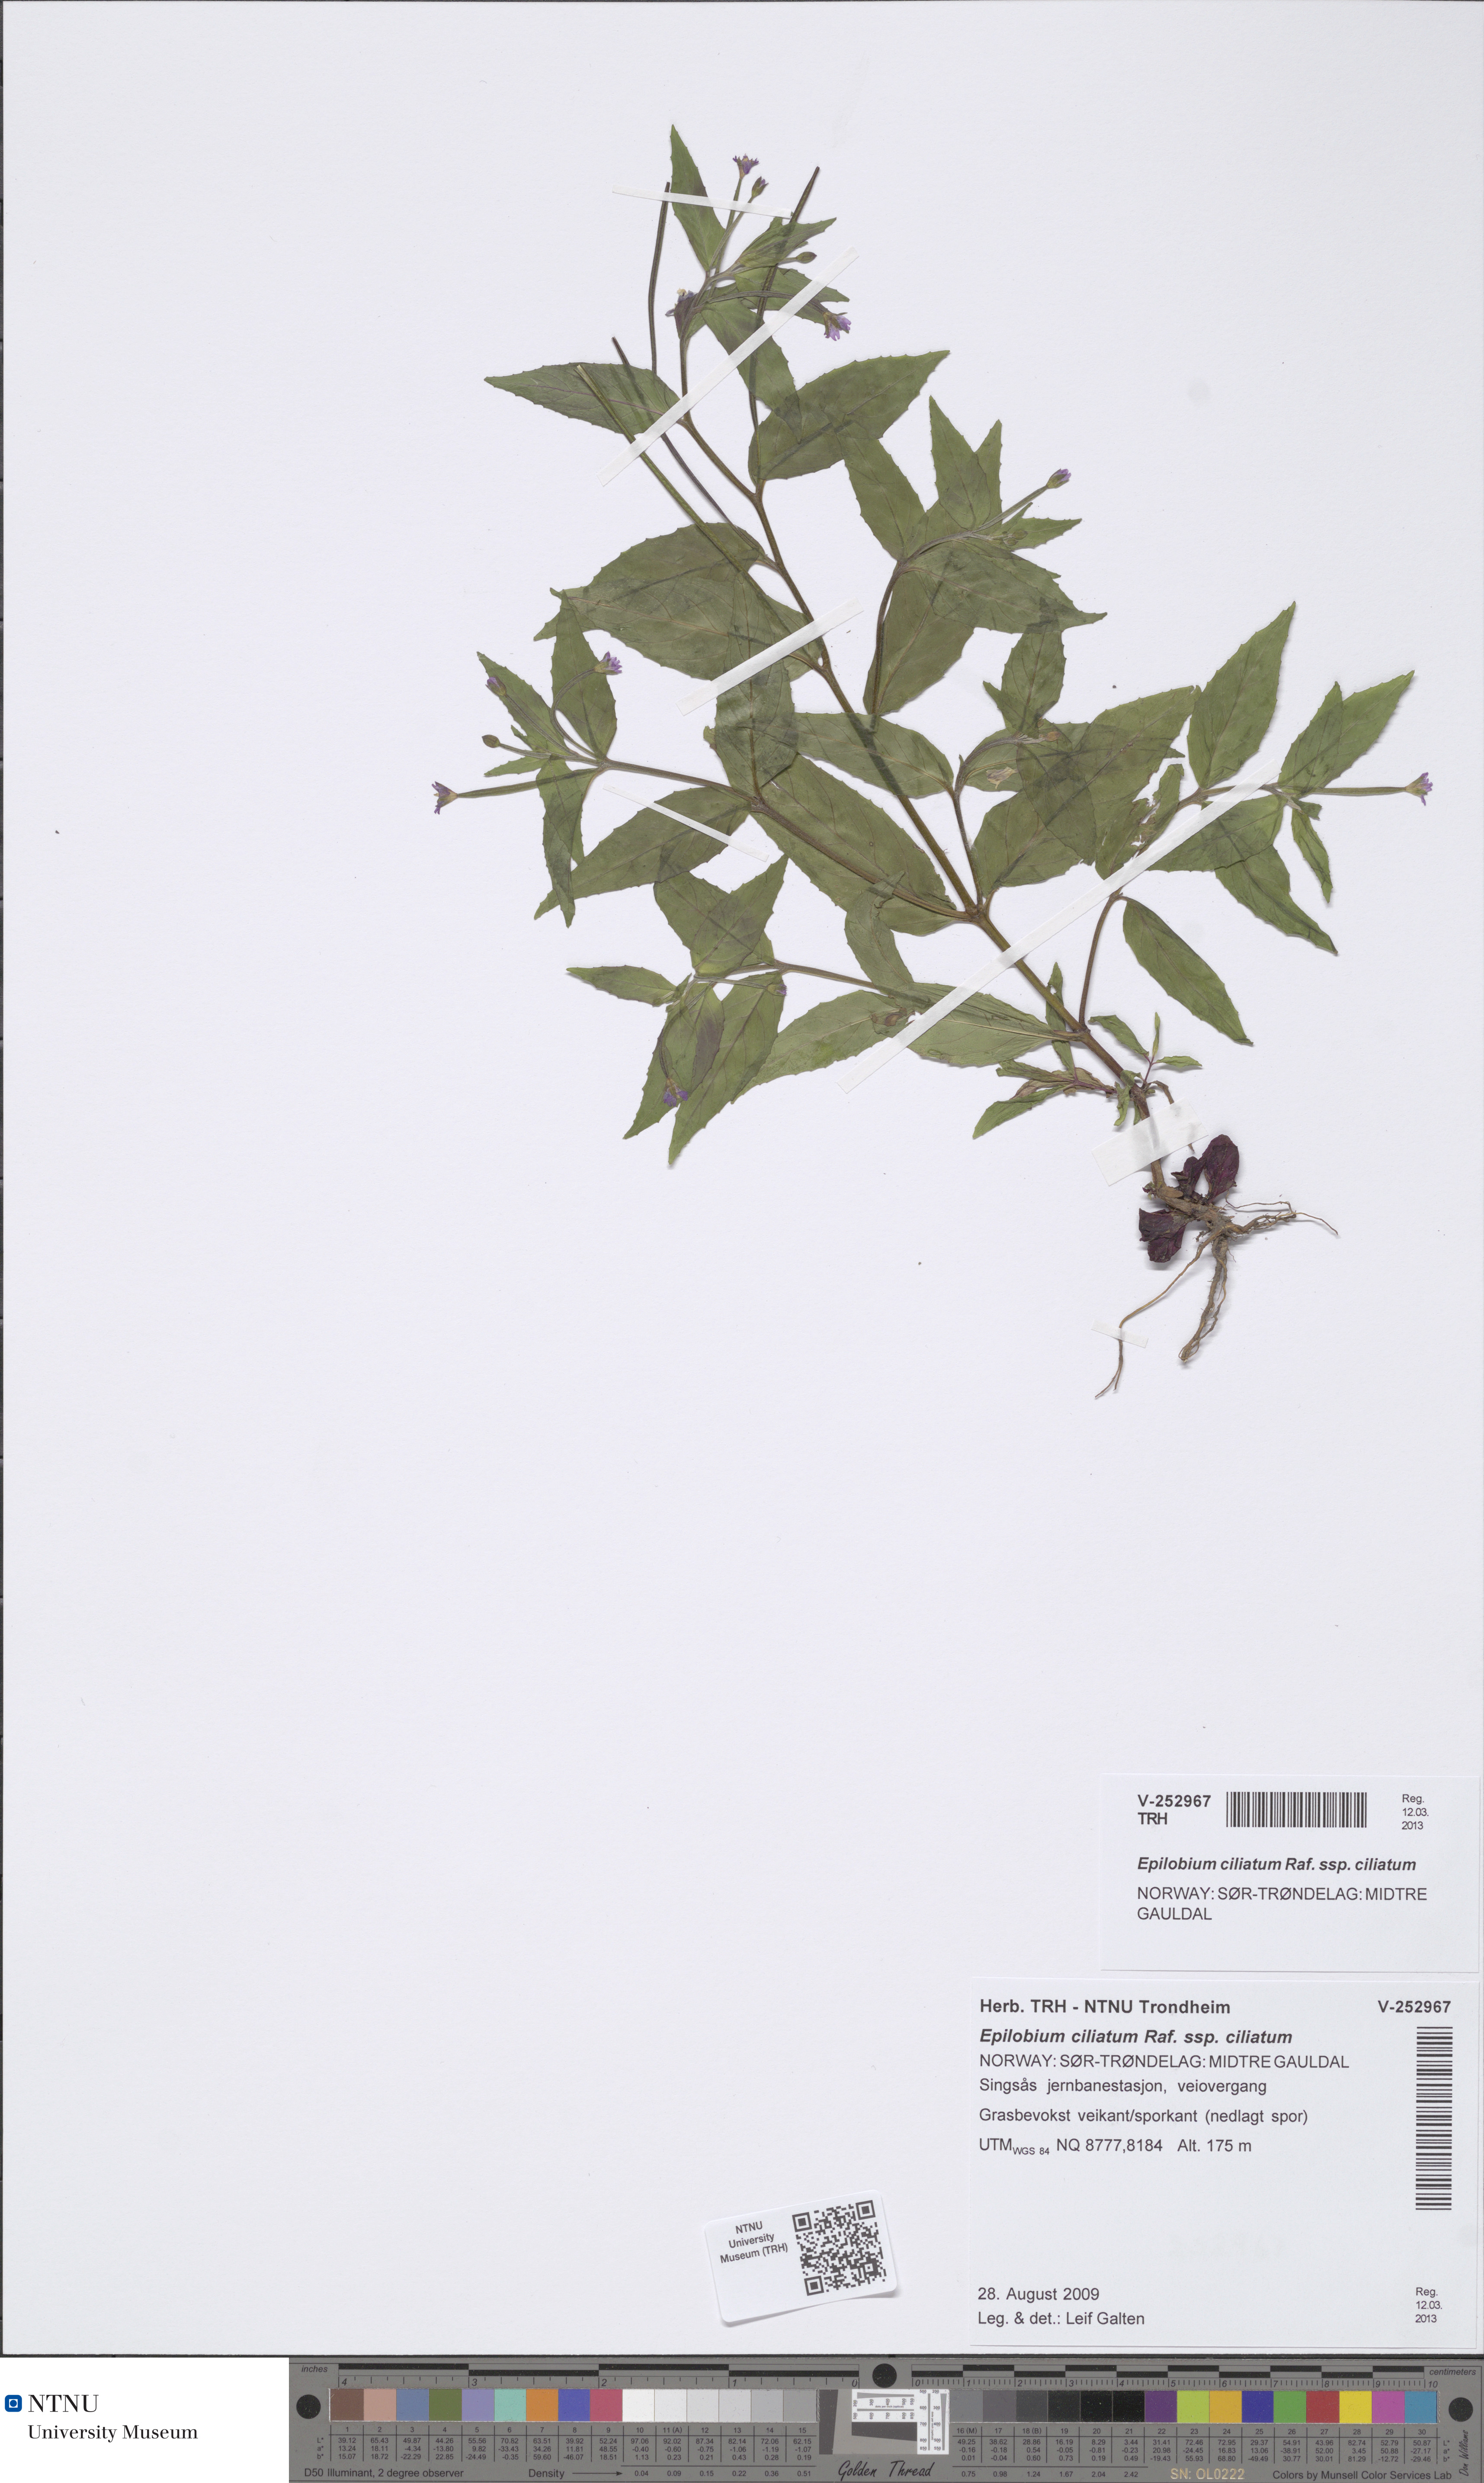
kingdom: Plantae
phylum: Tracheophyta
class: Magnoliopsida
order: Myrtales
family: Onagraceae
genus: Epilobium
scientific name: Epilobium ciliatum
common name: American willowherb
